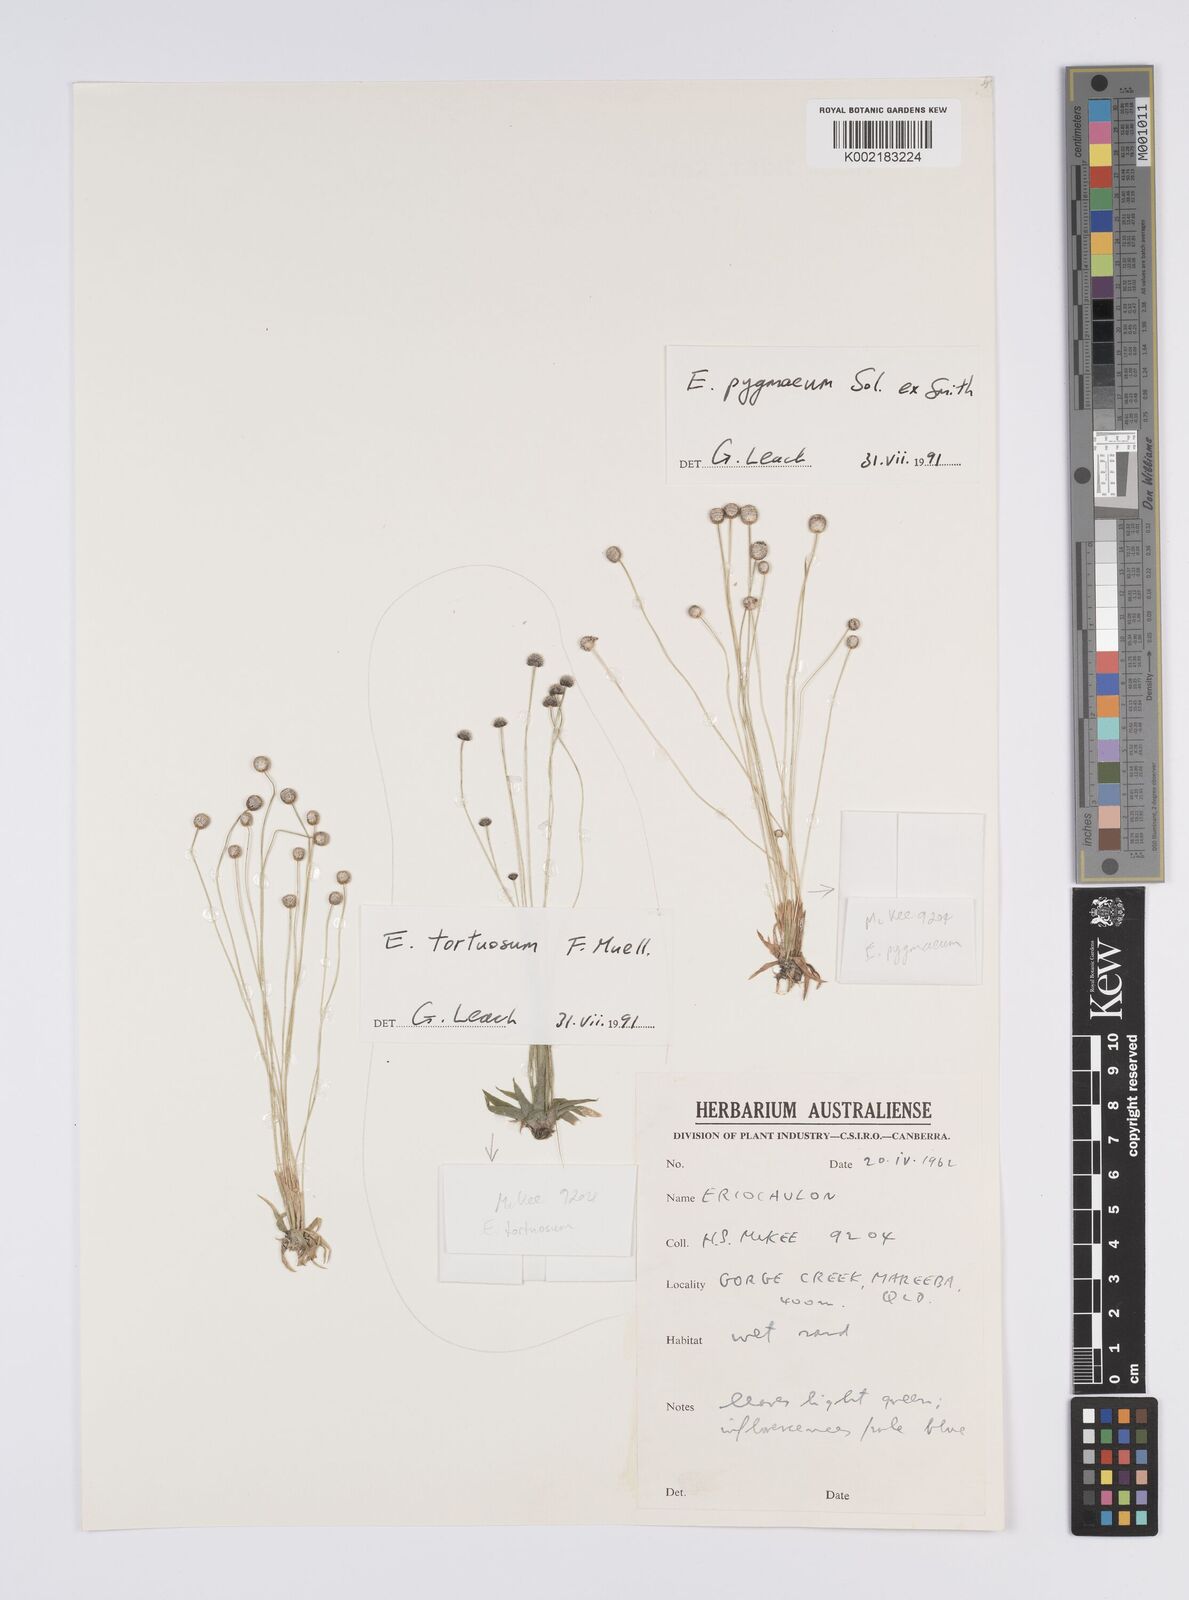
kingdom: Plantae
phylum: Tracheophyta
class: Liliopsida
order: Poales
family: Eriocaulaceae
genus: Eriocaulon
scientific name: Eriocaulon tortuosum
